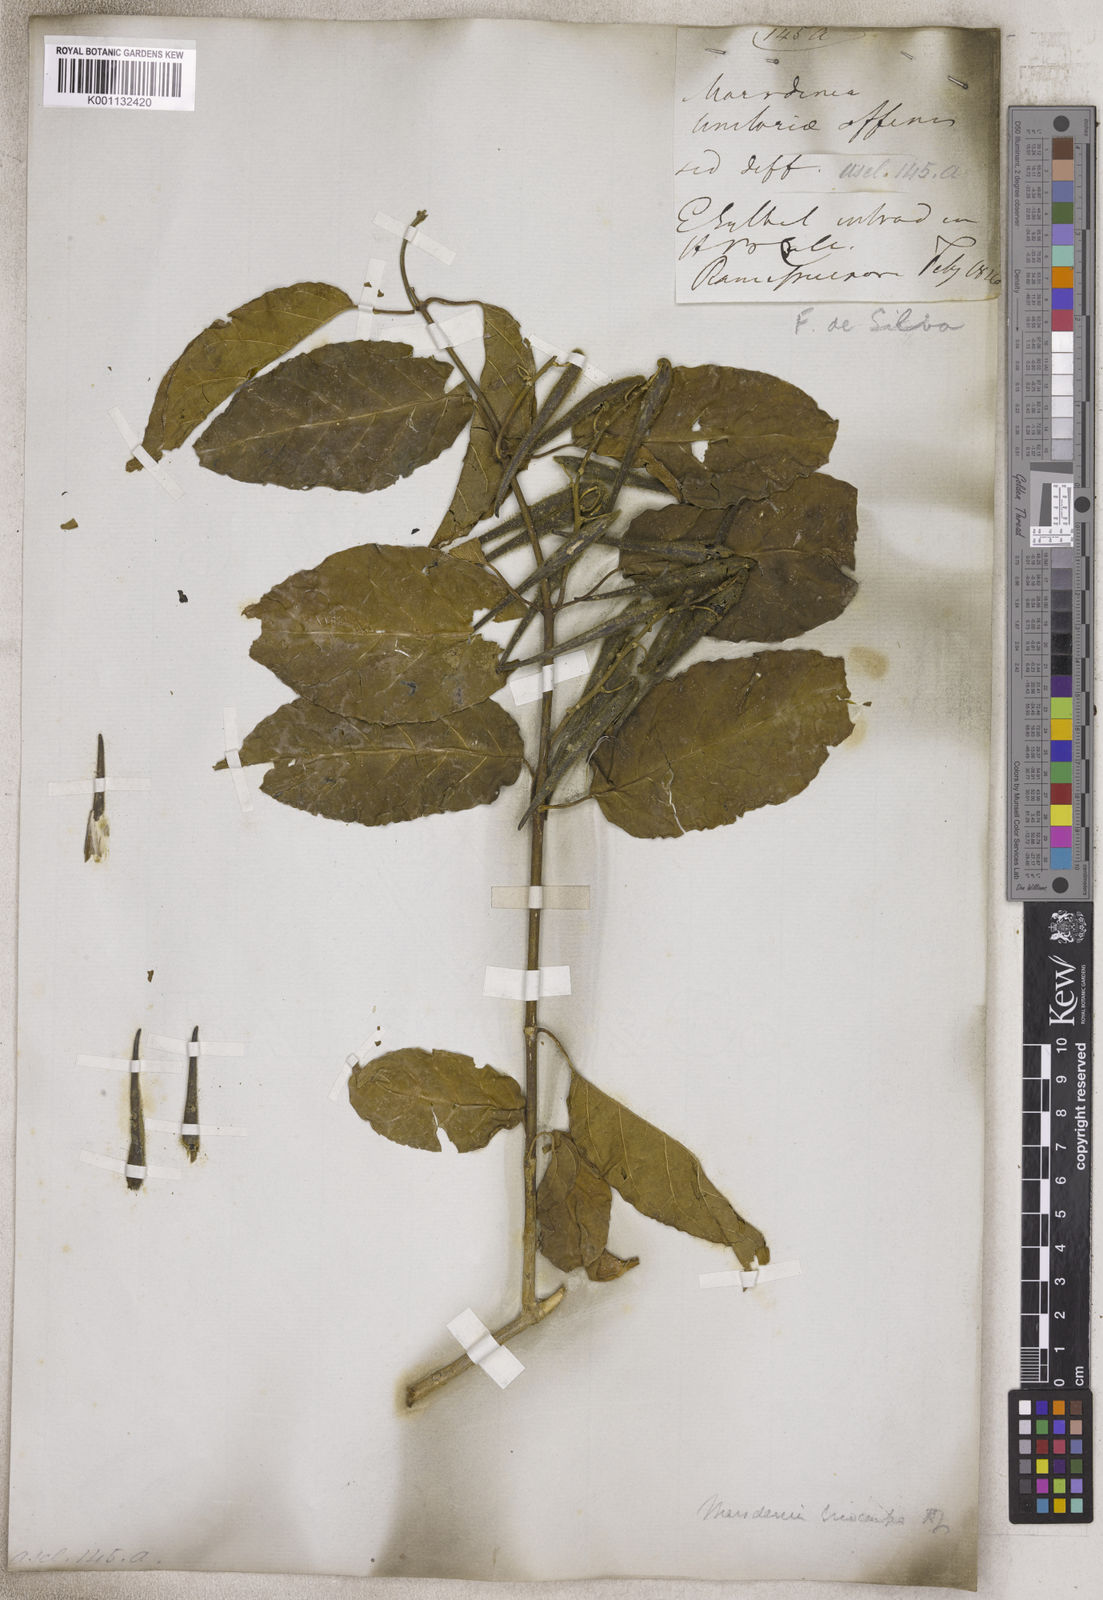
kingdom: Plantae
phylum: Tracheophyta
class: Magnoliopsida
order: Gentianales
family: Apocynaceae
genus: Marsdenia
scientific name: Marsdenia
